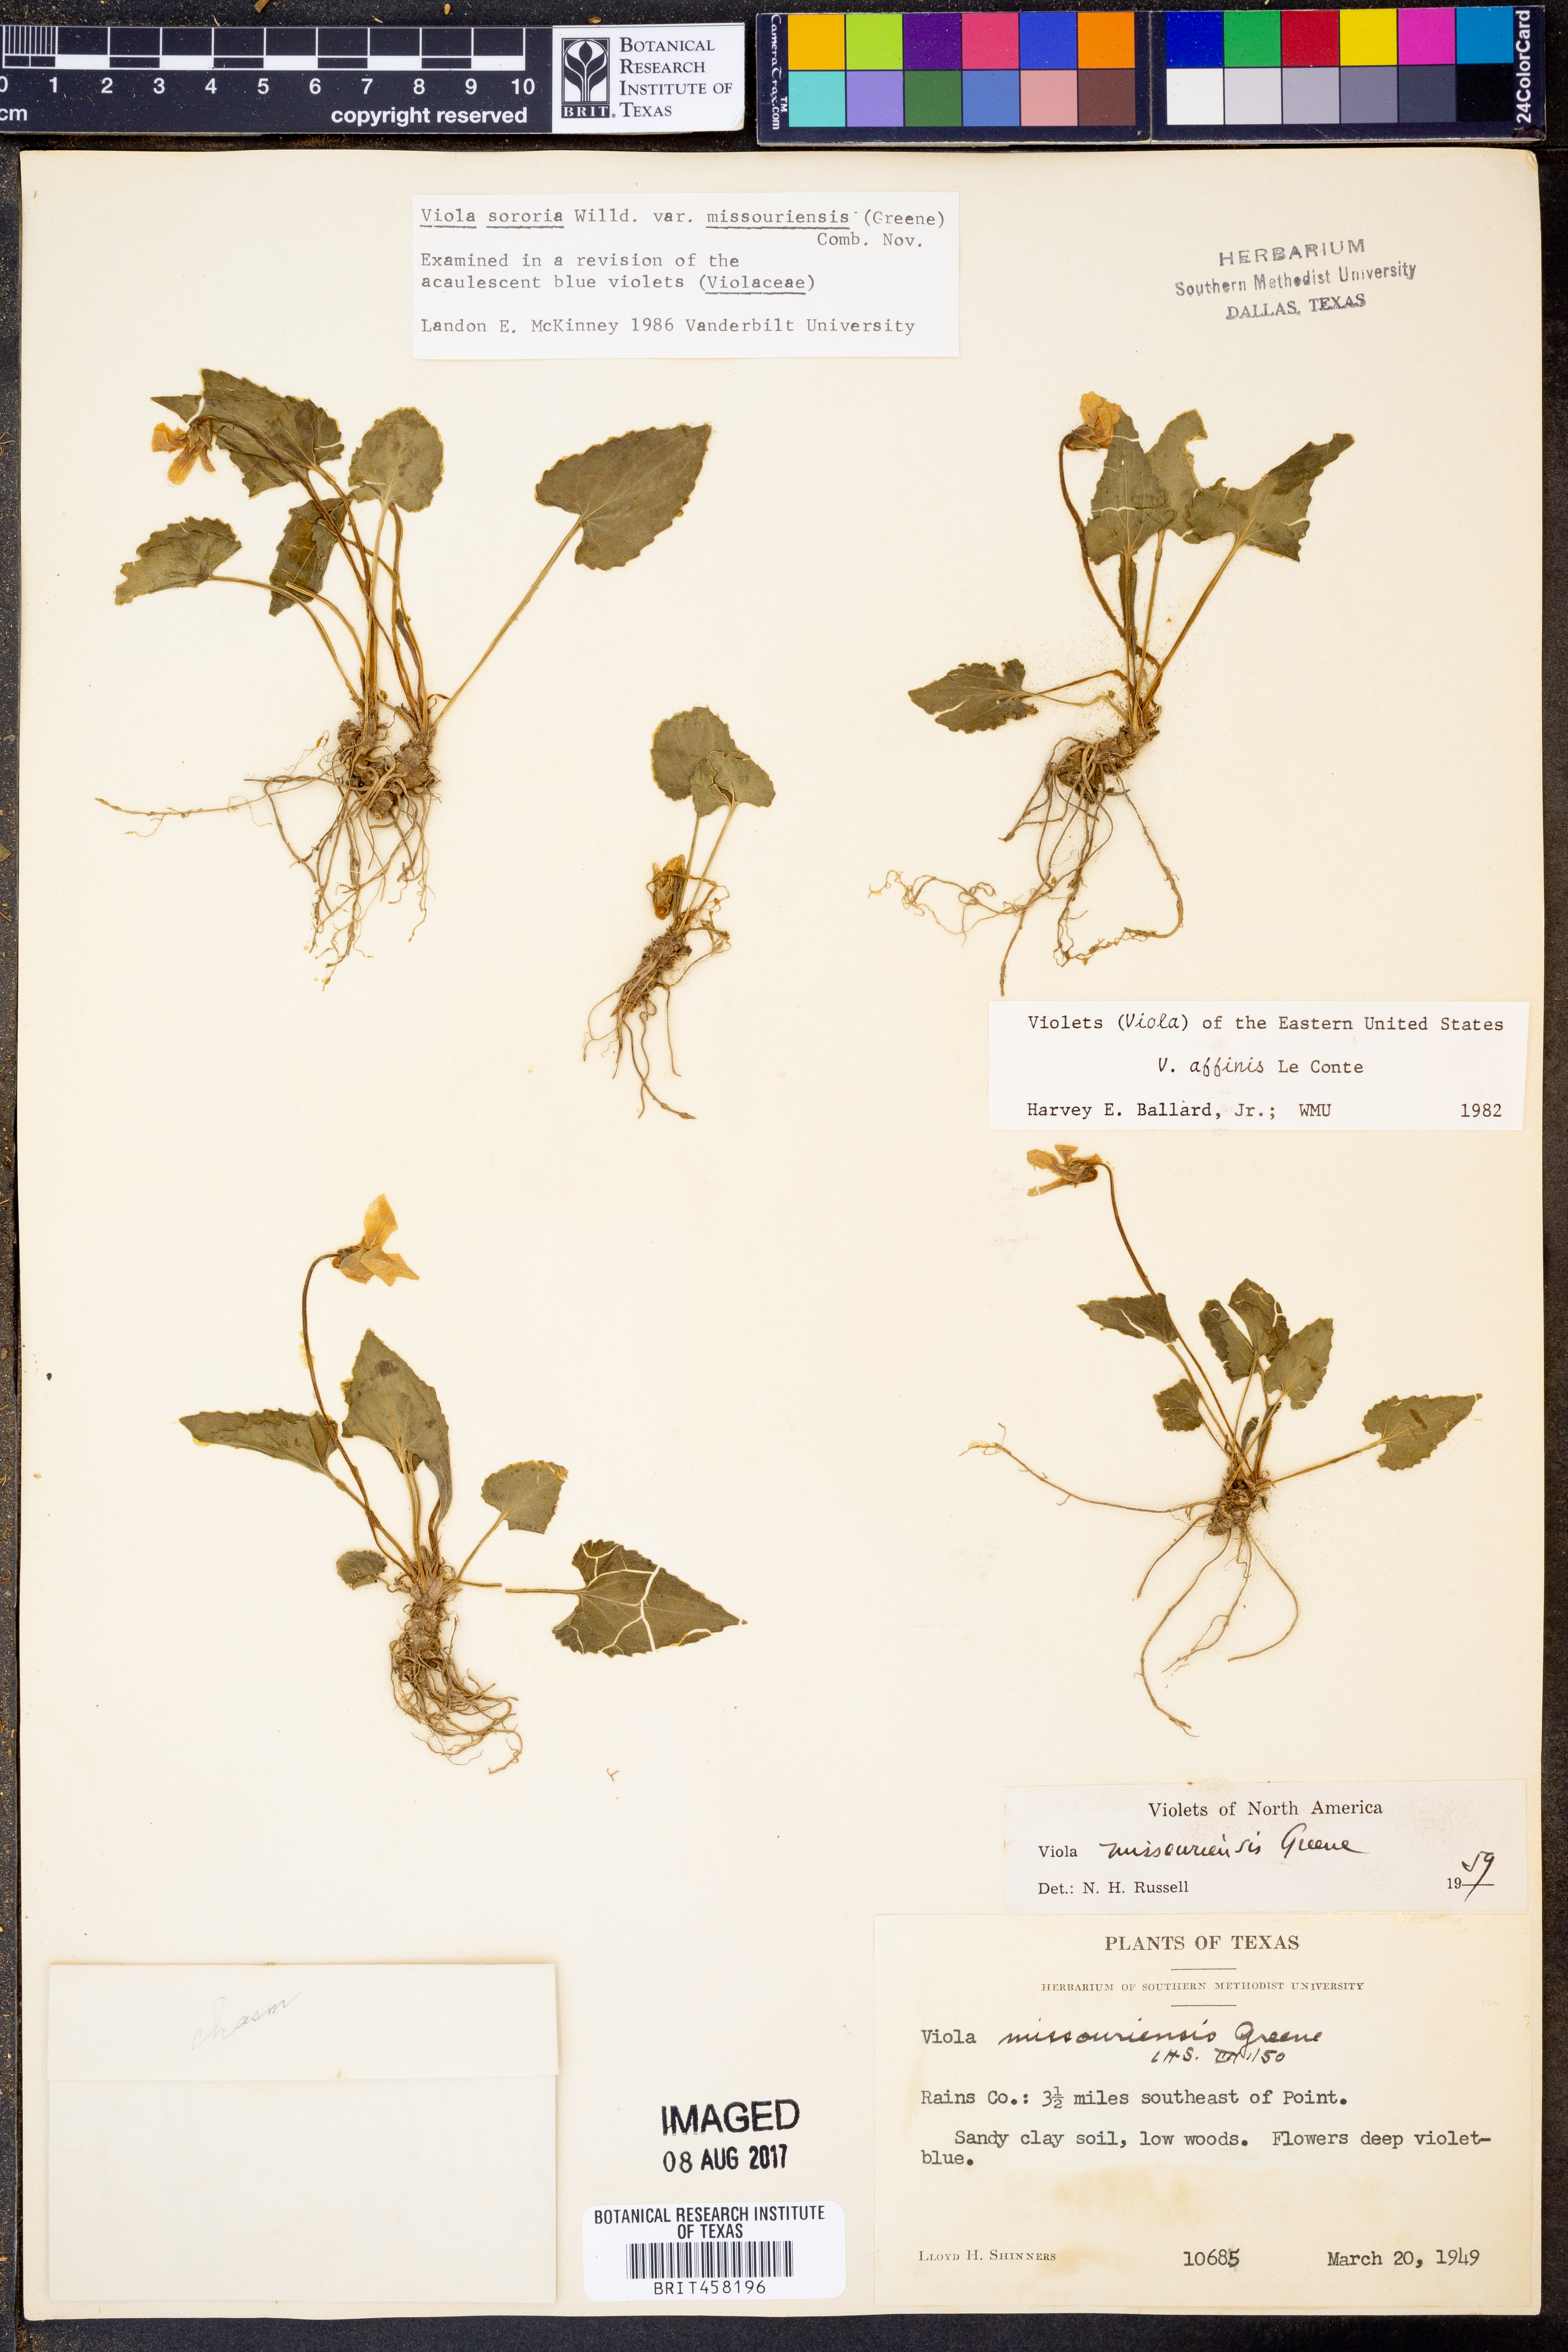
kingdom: Plantae
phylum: Tracheophyta
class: Magnoliopsida
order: Malpighiales
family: Violaceae
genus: Viola
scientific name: Viola missouriensis
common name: Missouri violet
